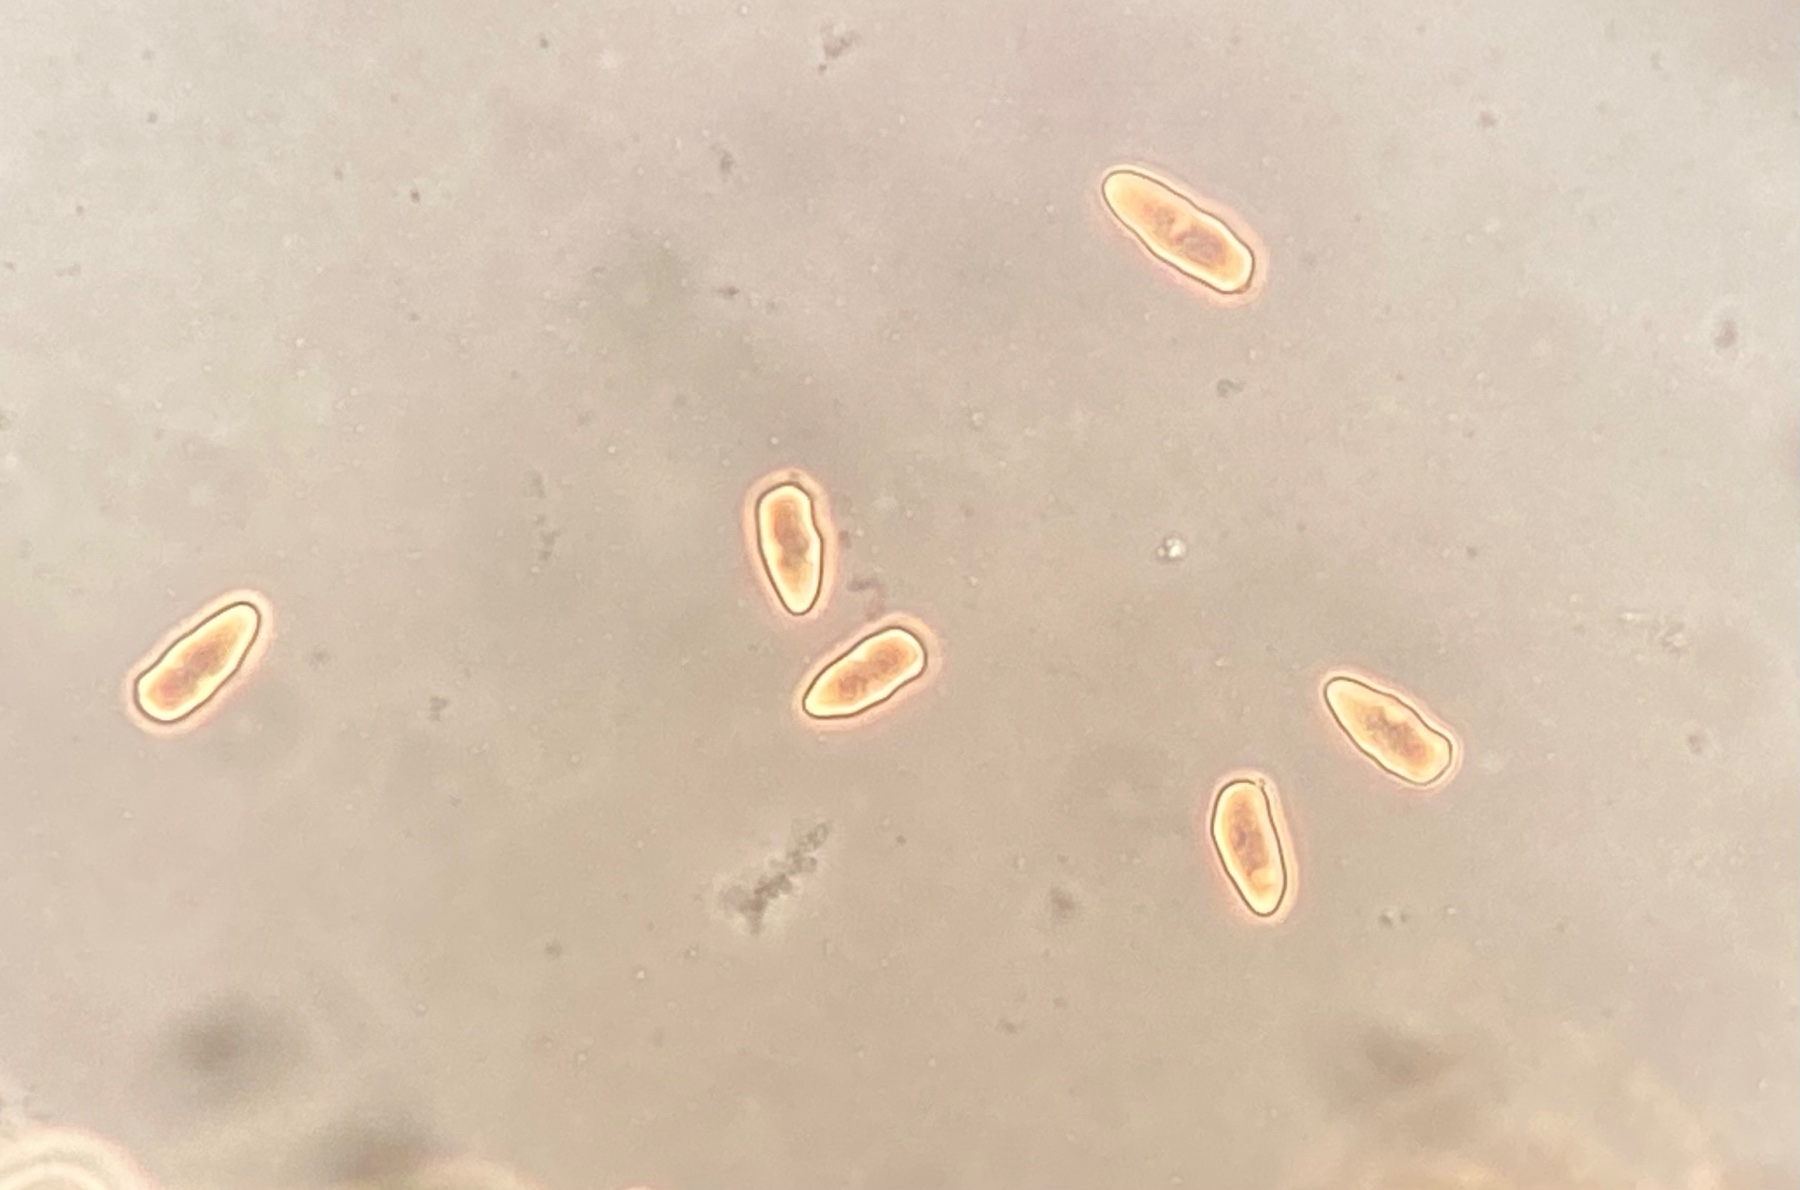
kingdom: Fungi
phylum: Basidiomycota
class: Agaricomycetes
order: Agaricales
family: Inocybaceae
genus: Inocybe
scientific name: Inocybe lacera
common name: laset trævlhat
